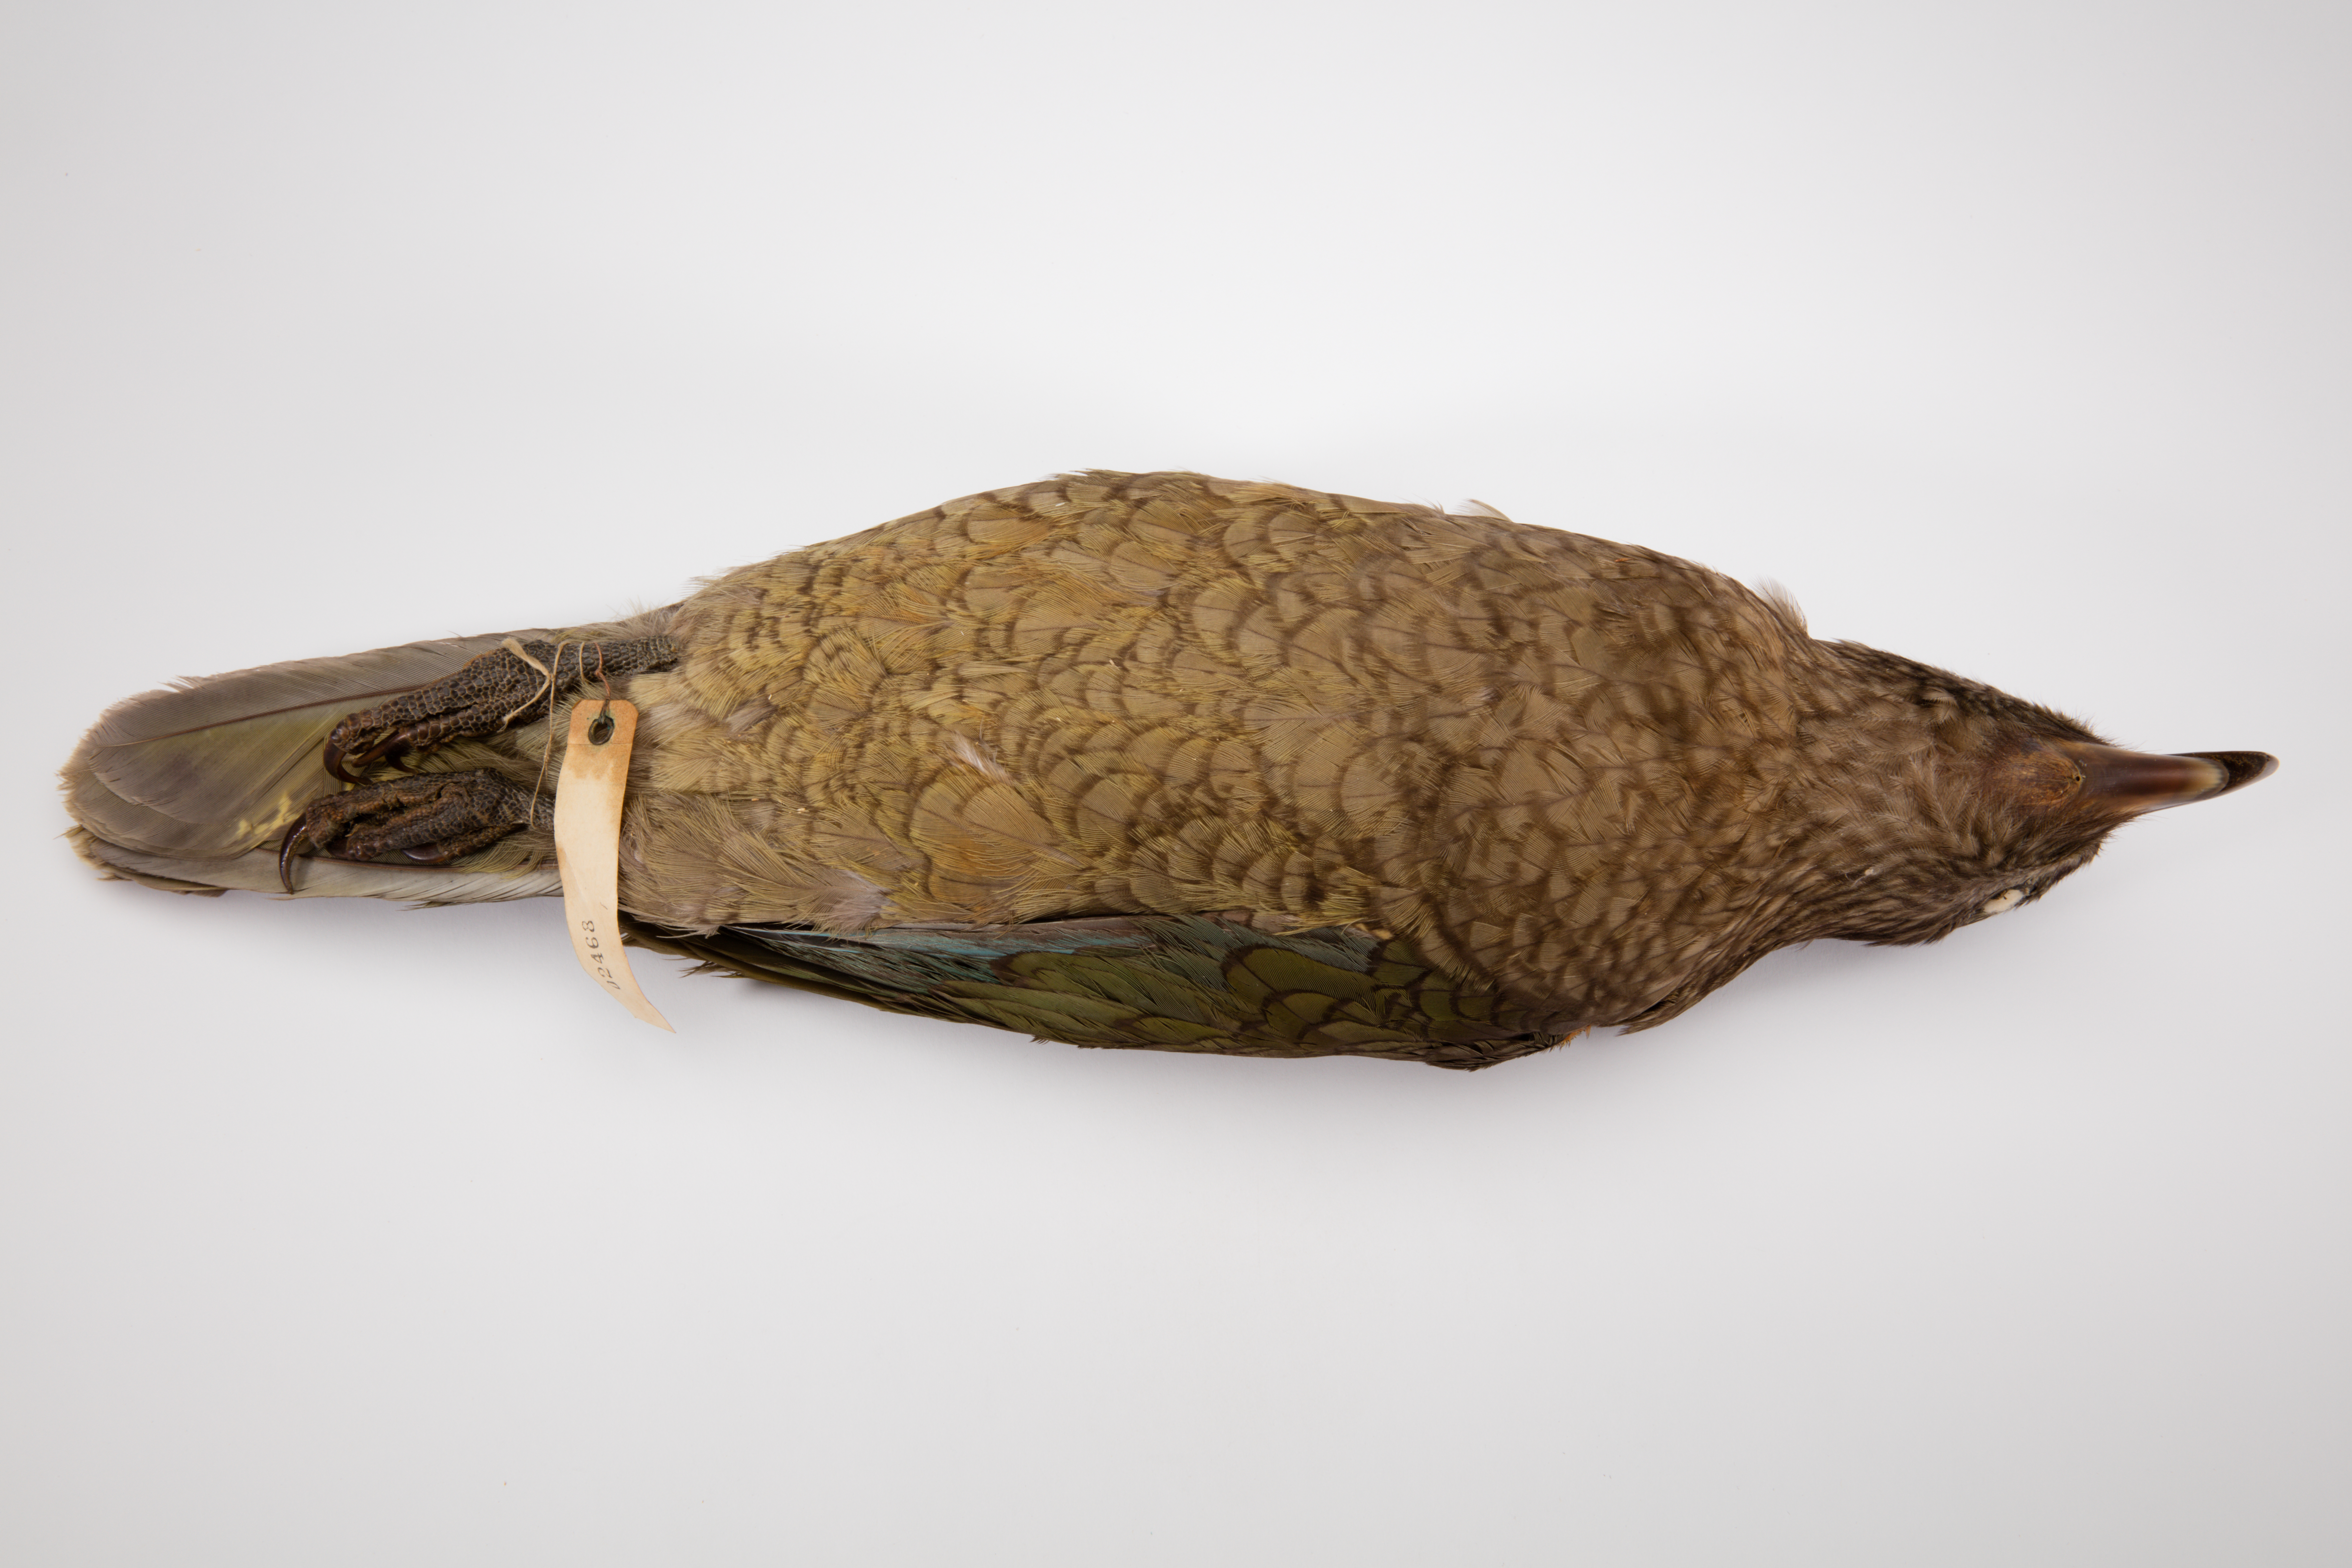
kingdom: Animalia
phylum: Chordata
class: Aves
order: Psittaciformes
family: Psittacidae
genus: Nestor
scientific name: Nestor notabilis
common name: Kea
